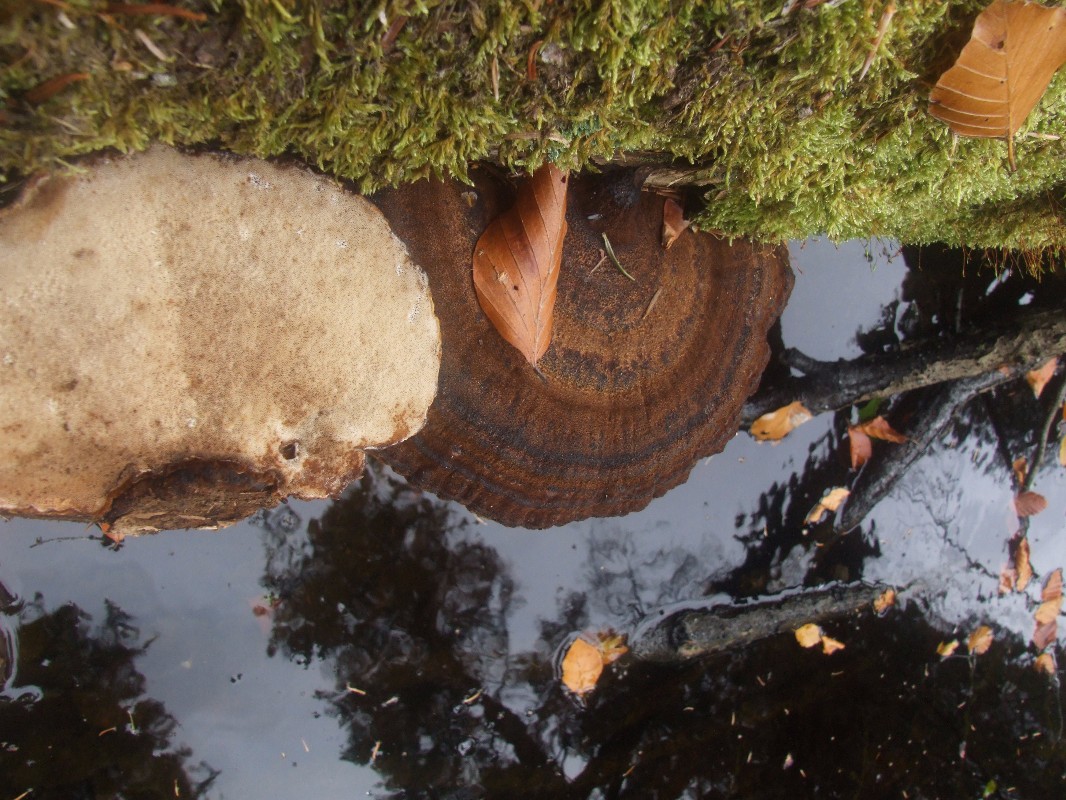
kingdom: Fungi
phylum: Basidiomycota
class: Agaricomycetes
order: Polyporales
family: Ischnodermataceae
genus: Ischnoderma
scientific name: Ischnoderma benzoinum
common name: gran-tjæreporesvamp
